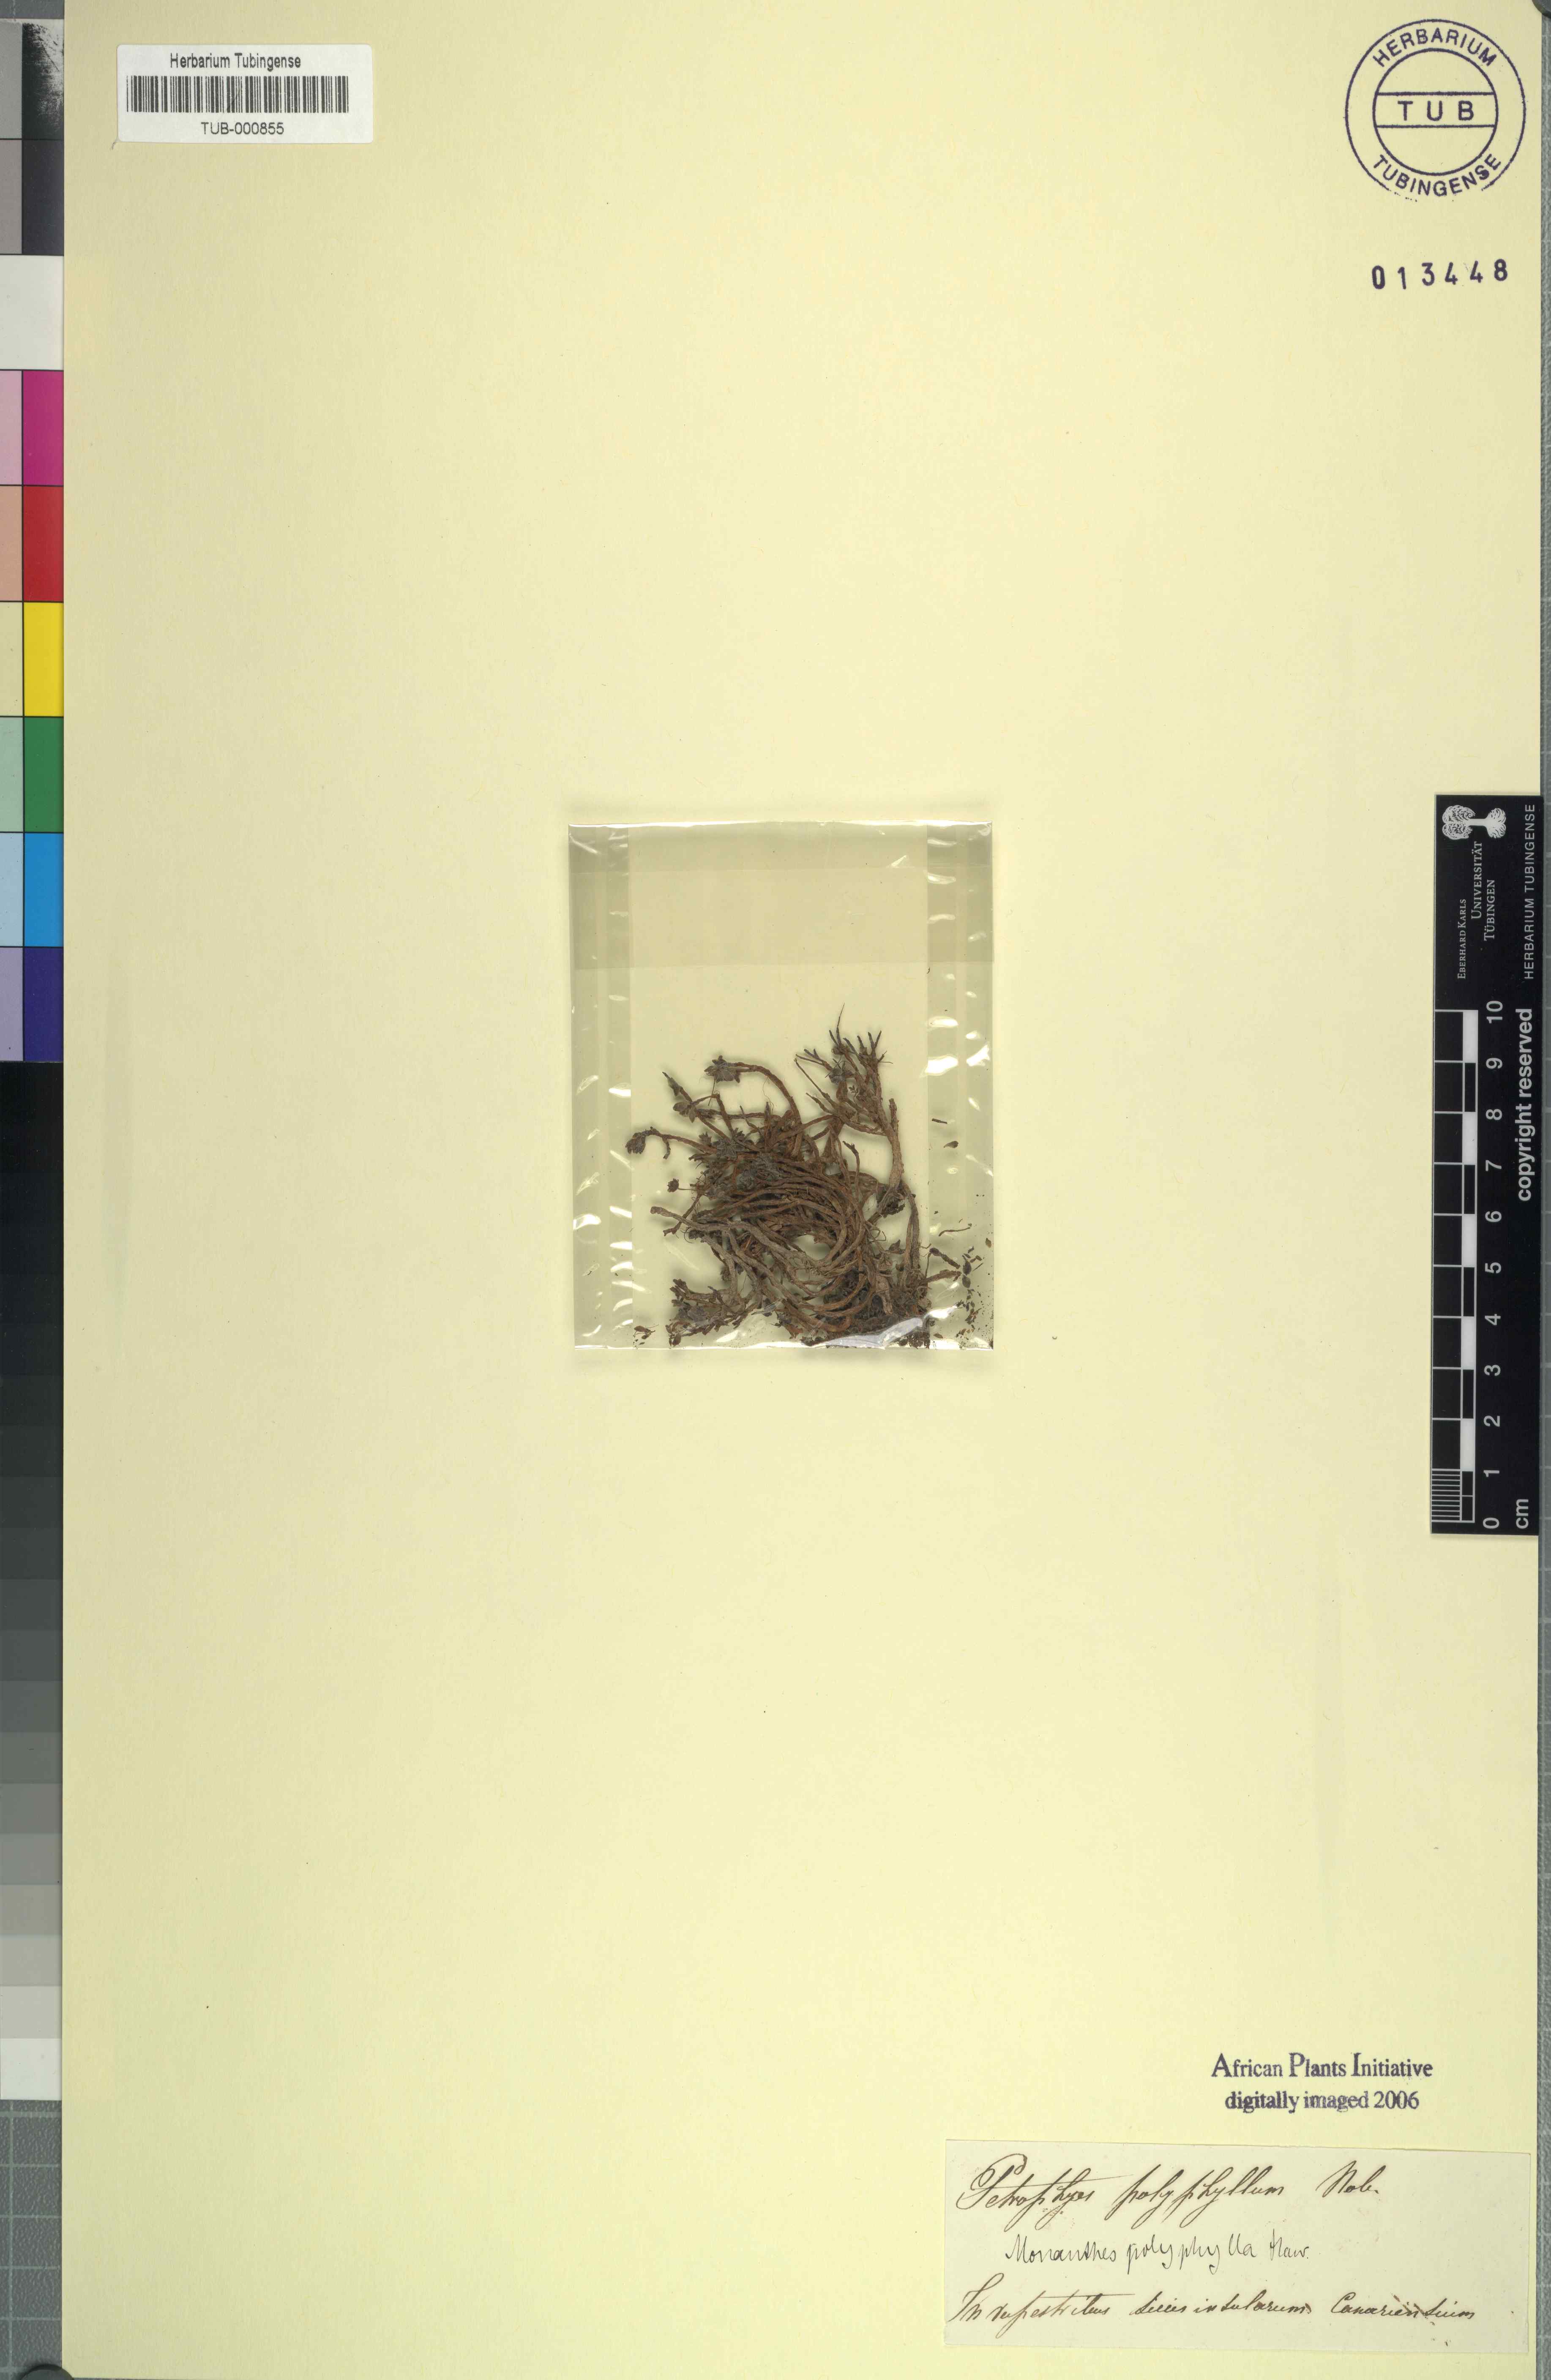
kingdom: Plantae
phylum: Tracheophyta
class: Magnoliopsida
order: Saxifragales
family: Crassulaceae
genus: Monanthes
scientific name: Monanthes polyphylla
